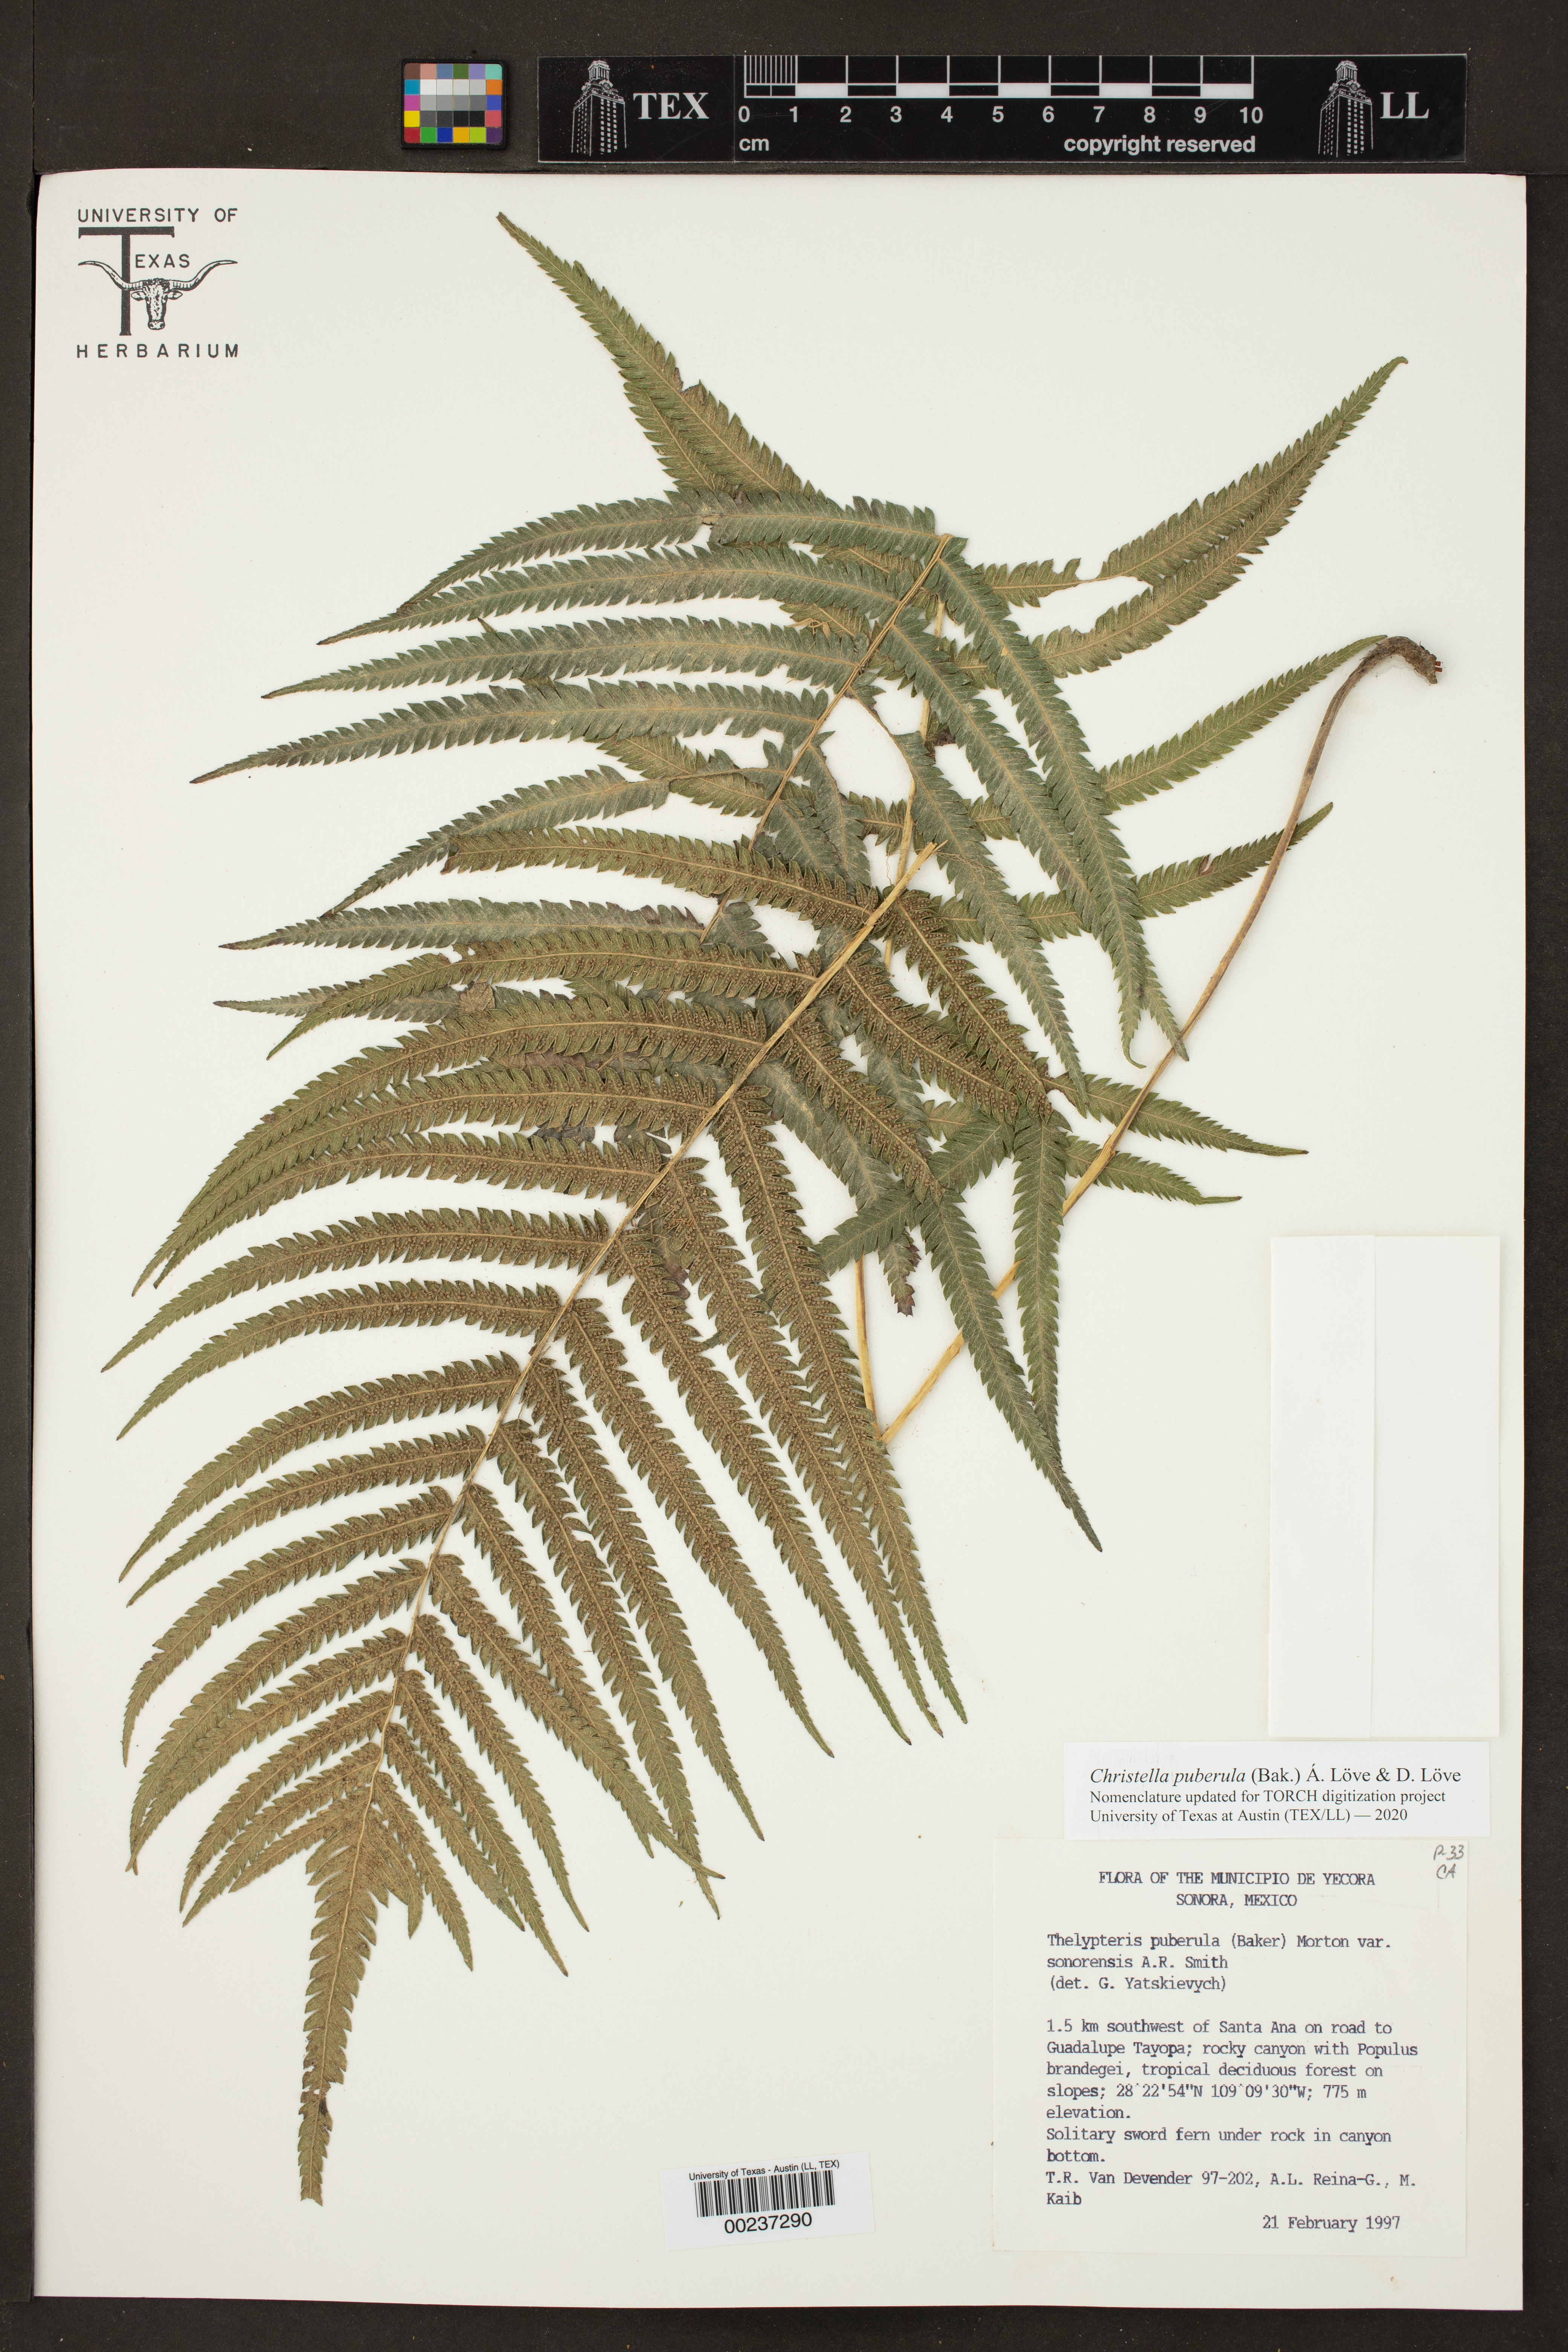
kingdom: Plantae
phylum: Tracheophyta
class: Polypodiopsida
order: Polypodiales
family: Thelypteridaceae
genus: Pelazoneuron
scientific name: Pelazoneuron puberulum
